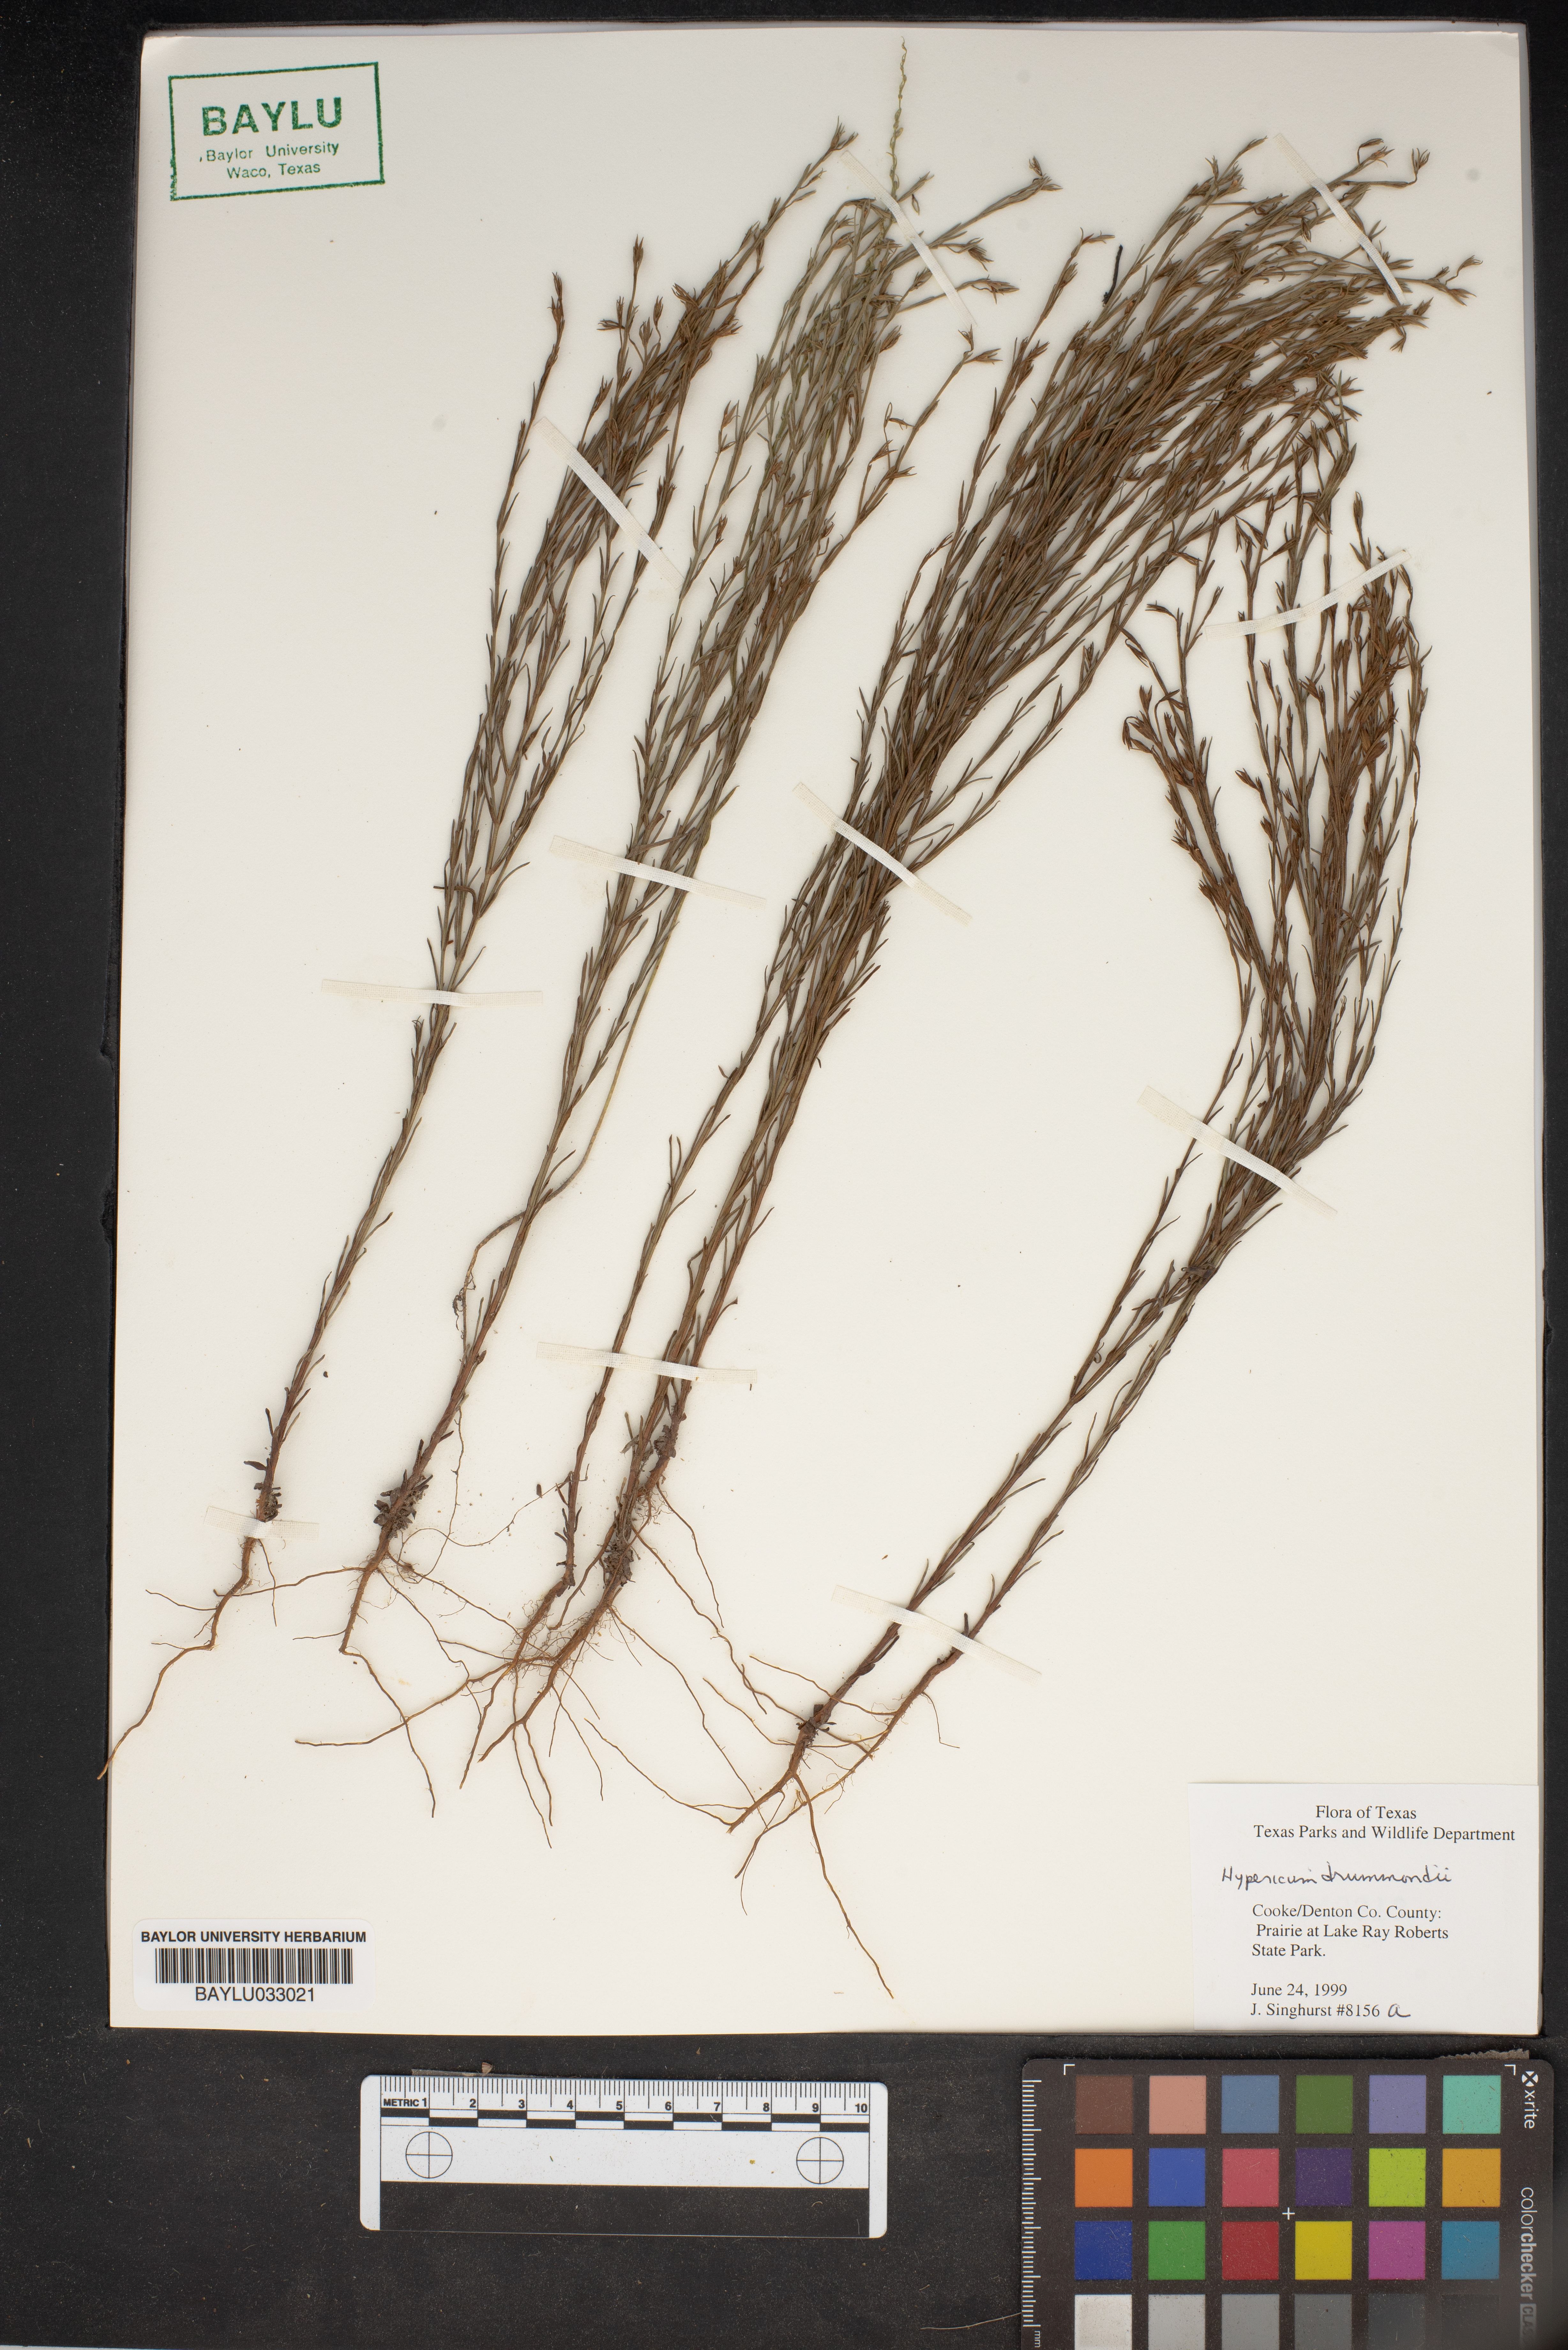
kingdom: Plantae
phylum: Tracheophyta
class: Magnoliopsida
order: Malpighiales
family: Hypericaceae
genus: Hypericum
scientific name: Hypericum drummondii
